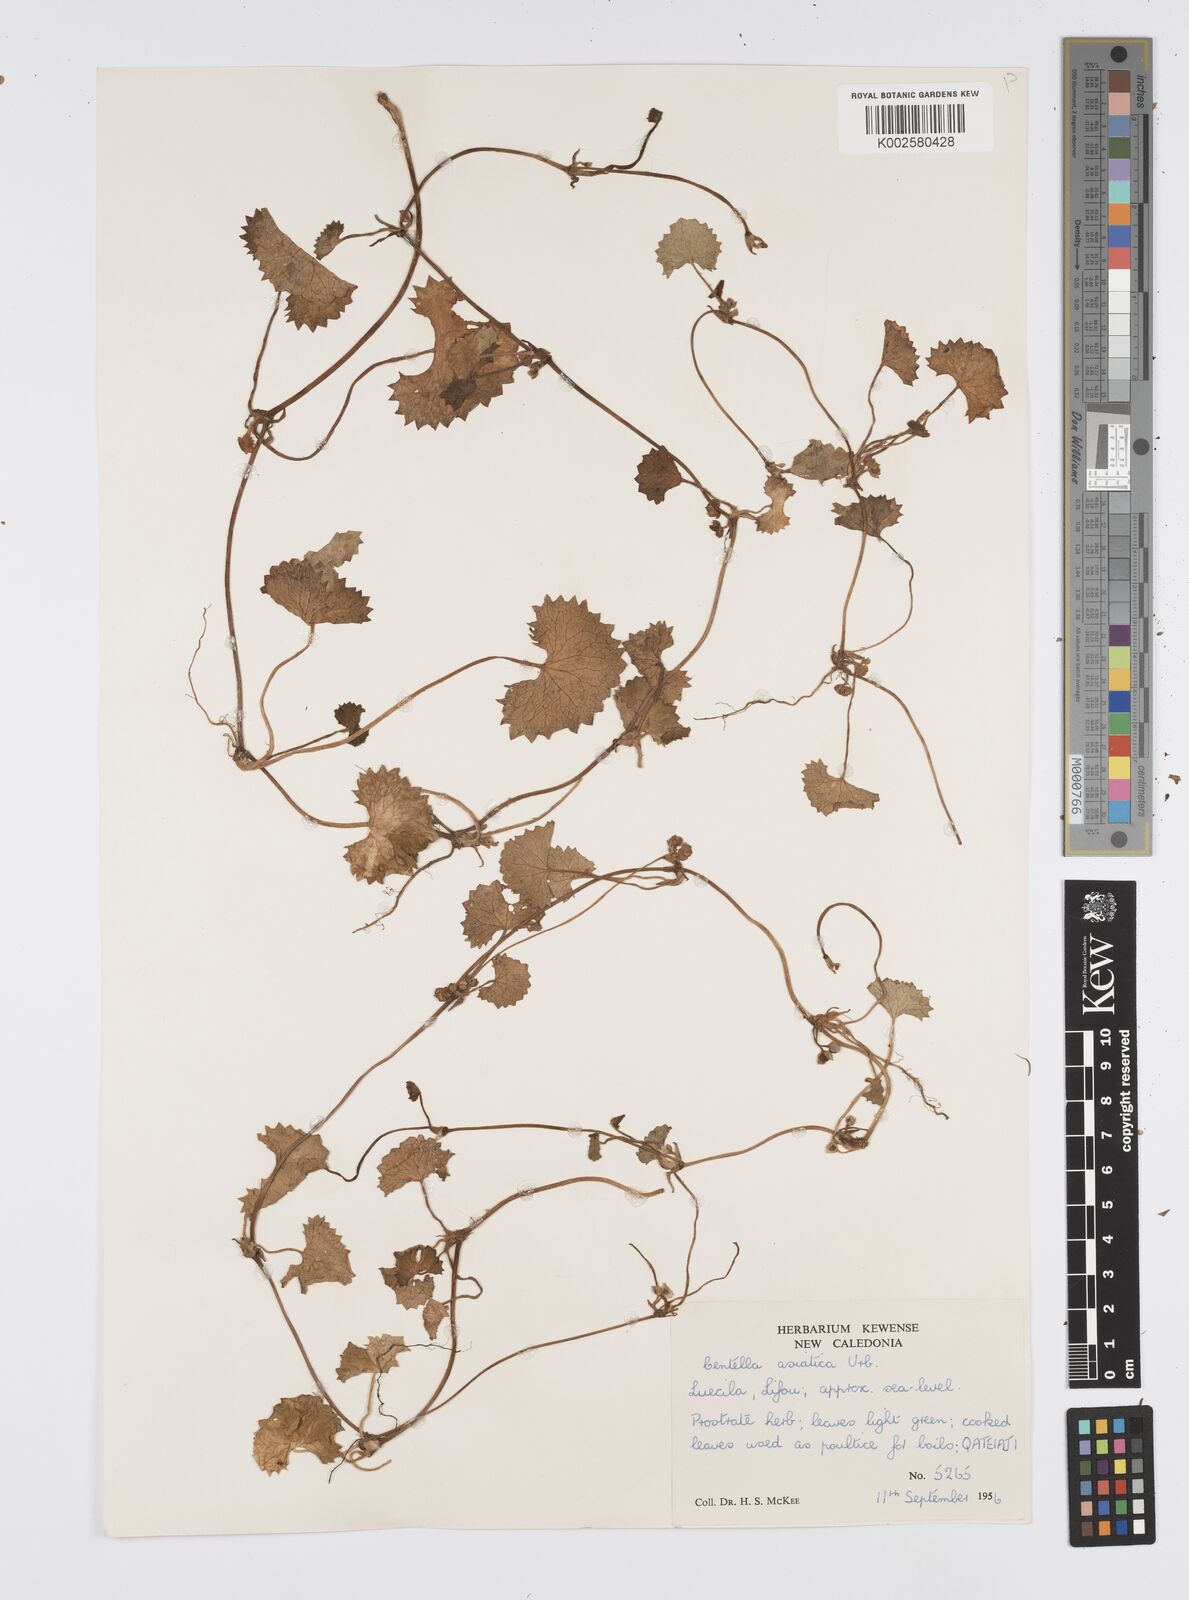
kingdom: Plantae
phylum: Tracheophyta
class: Magnoliopsida
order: Apiales
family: Apiaceae
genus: Centella
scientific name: Centella asiatica
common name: Spadeleaf
